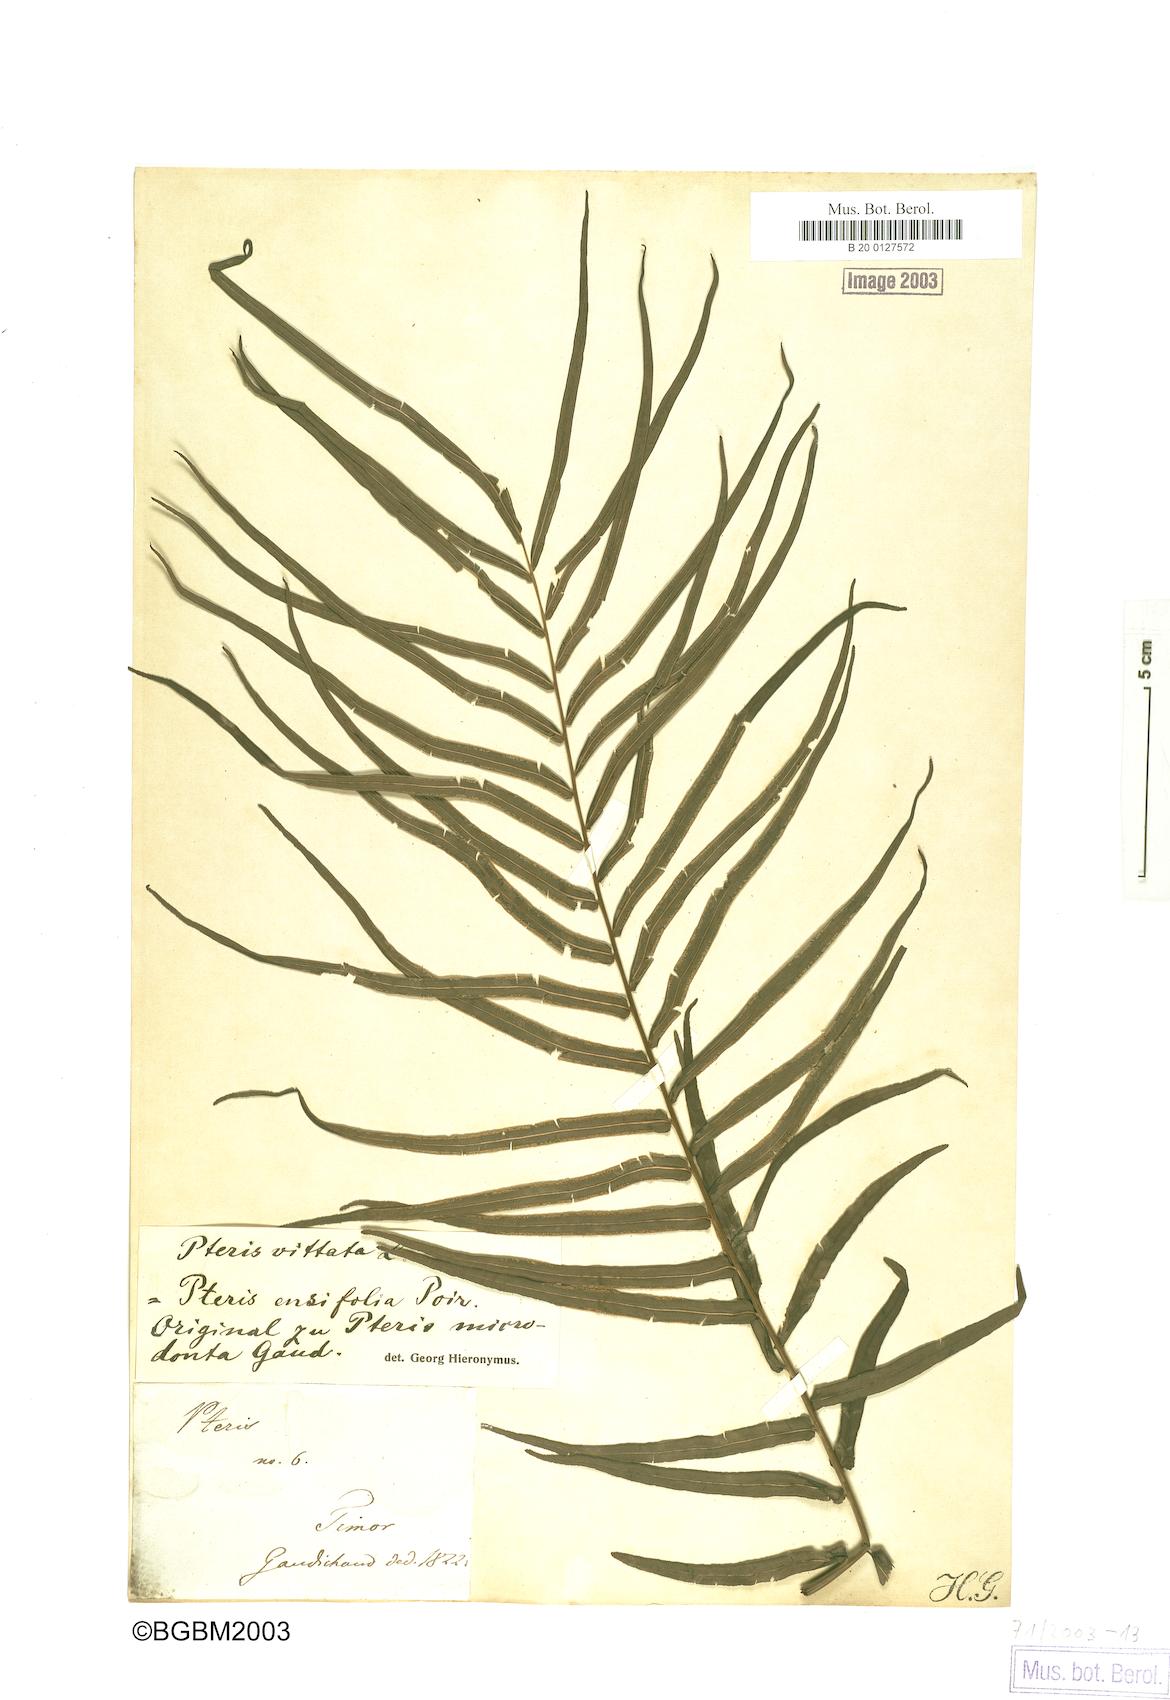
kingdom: Plantae
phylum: Tracheophyta
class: Polypodiopsida
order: Polypodiales
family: Pteridaceae
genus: Pteris
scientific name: Pteris vittata
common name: Ladder brake
